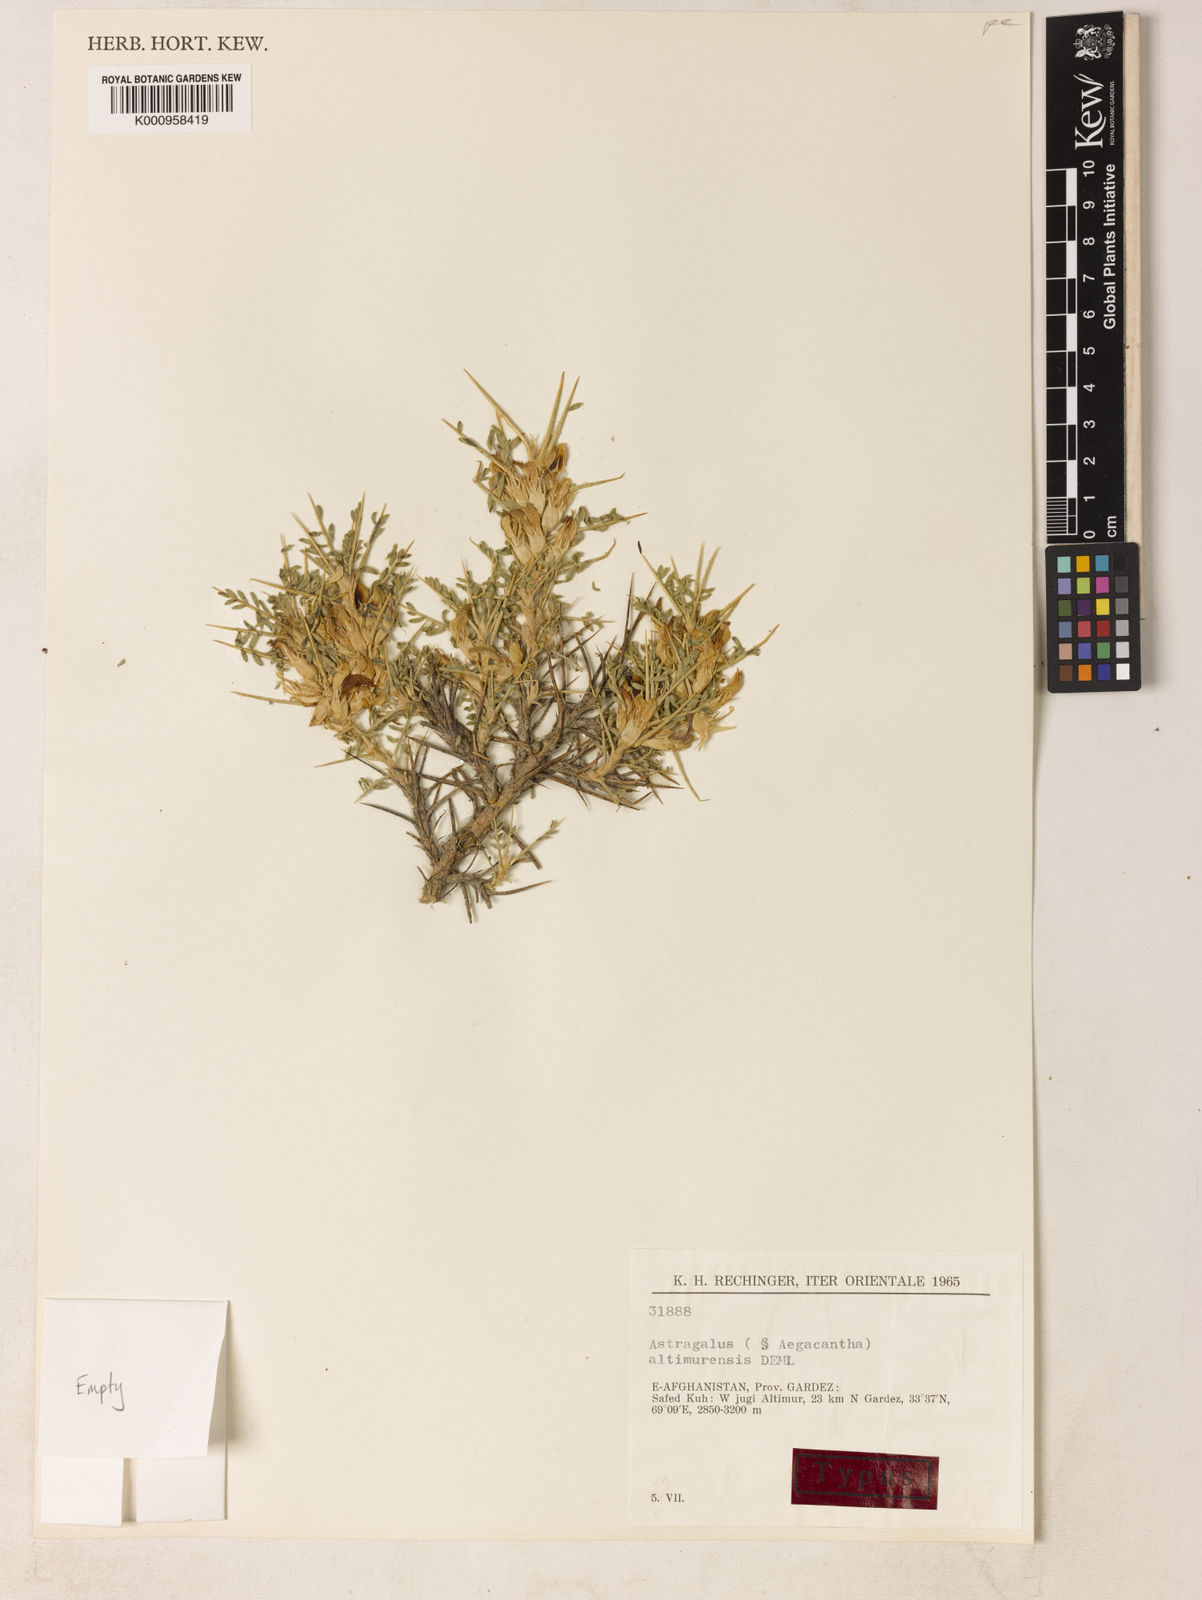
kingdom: Plantae
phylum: Tracheophyta
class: Magnoliopsida
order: Fabales
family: Fabaceae
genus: Astragalus
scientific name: Astragalus
